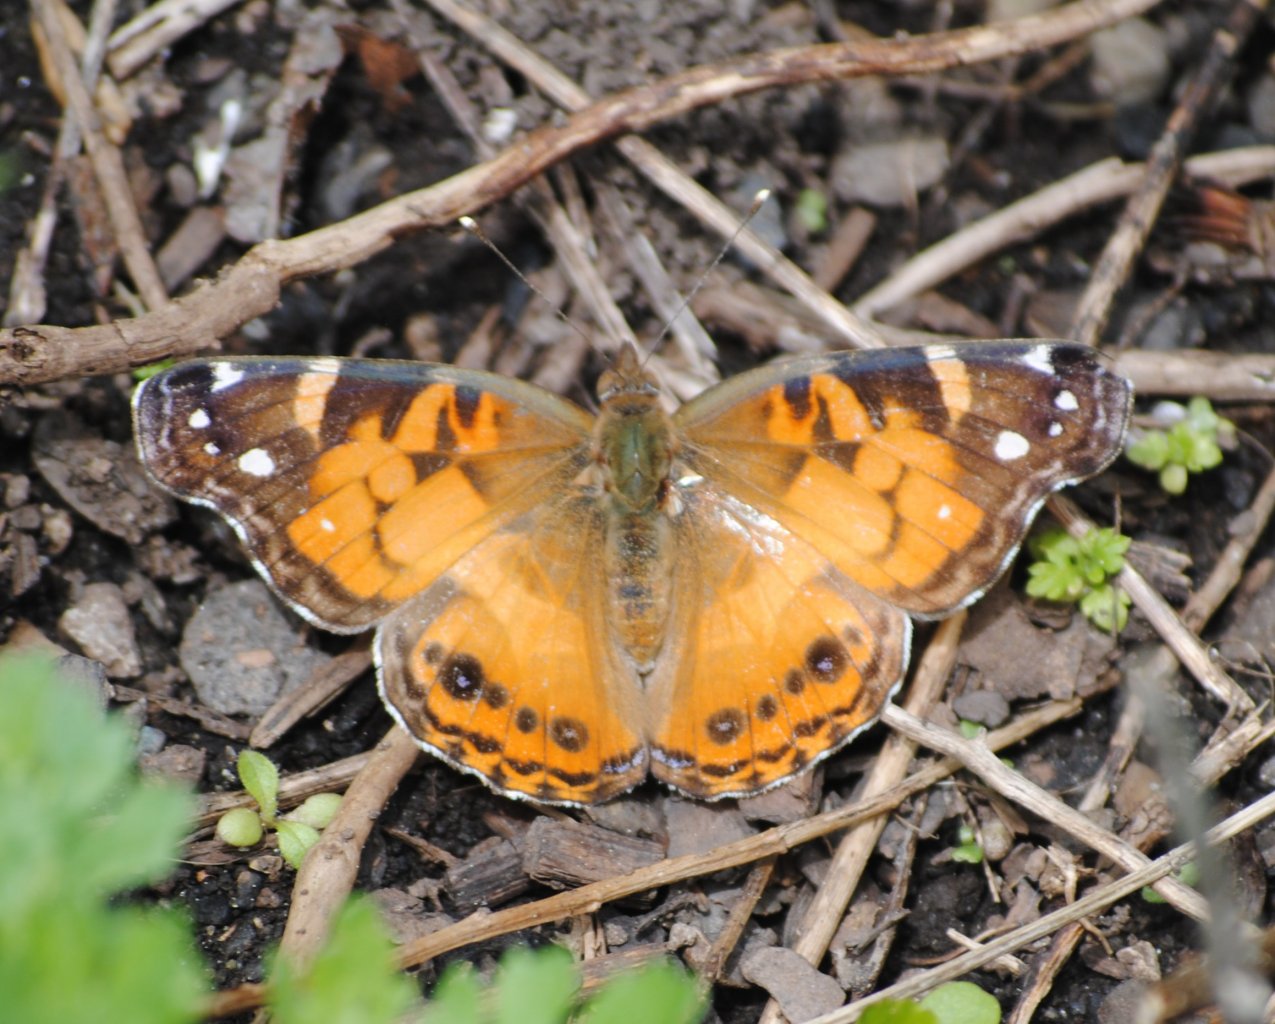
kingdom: Animalia
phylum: Arthropoda
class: Insecta
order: Lepidoptera
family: Nymphalidae
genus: Vanessa
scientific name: Vanessa virginiensis
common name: American Lady
